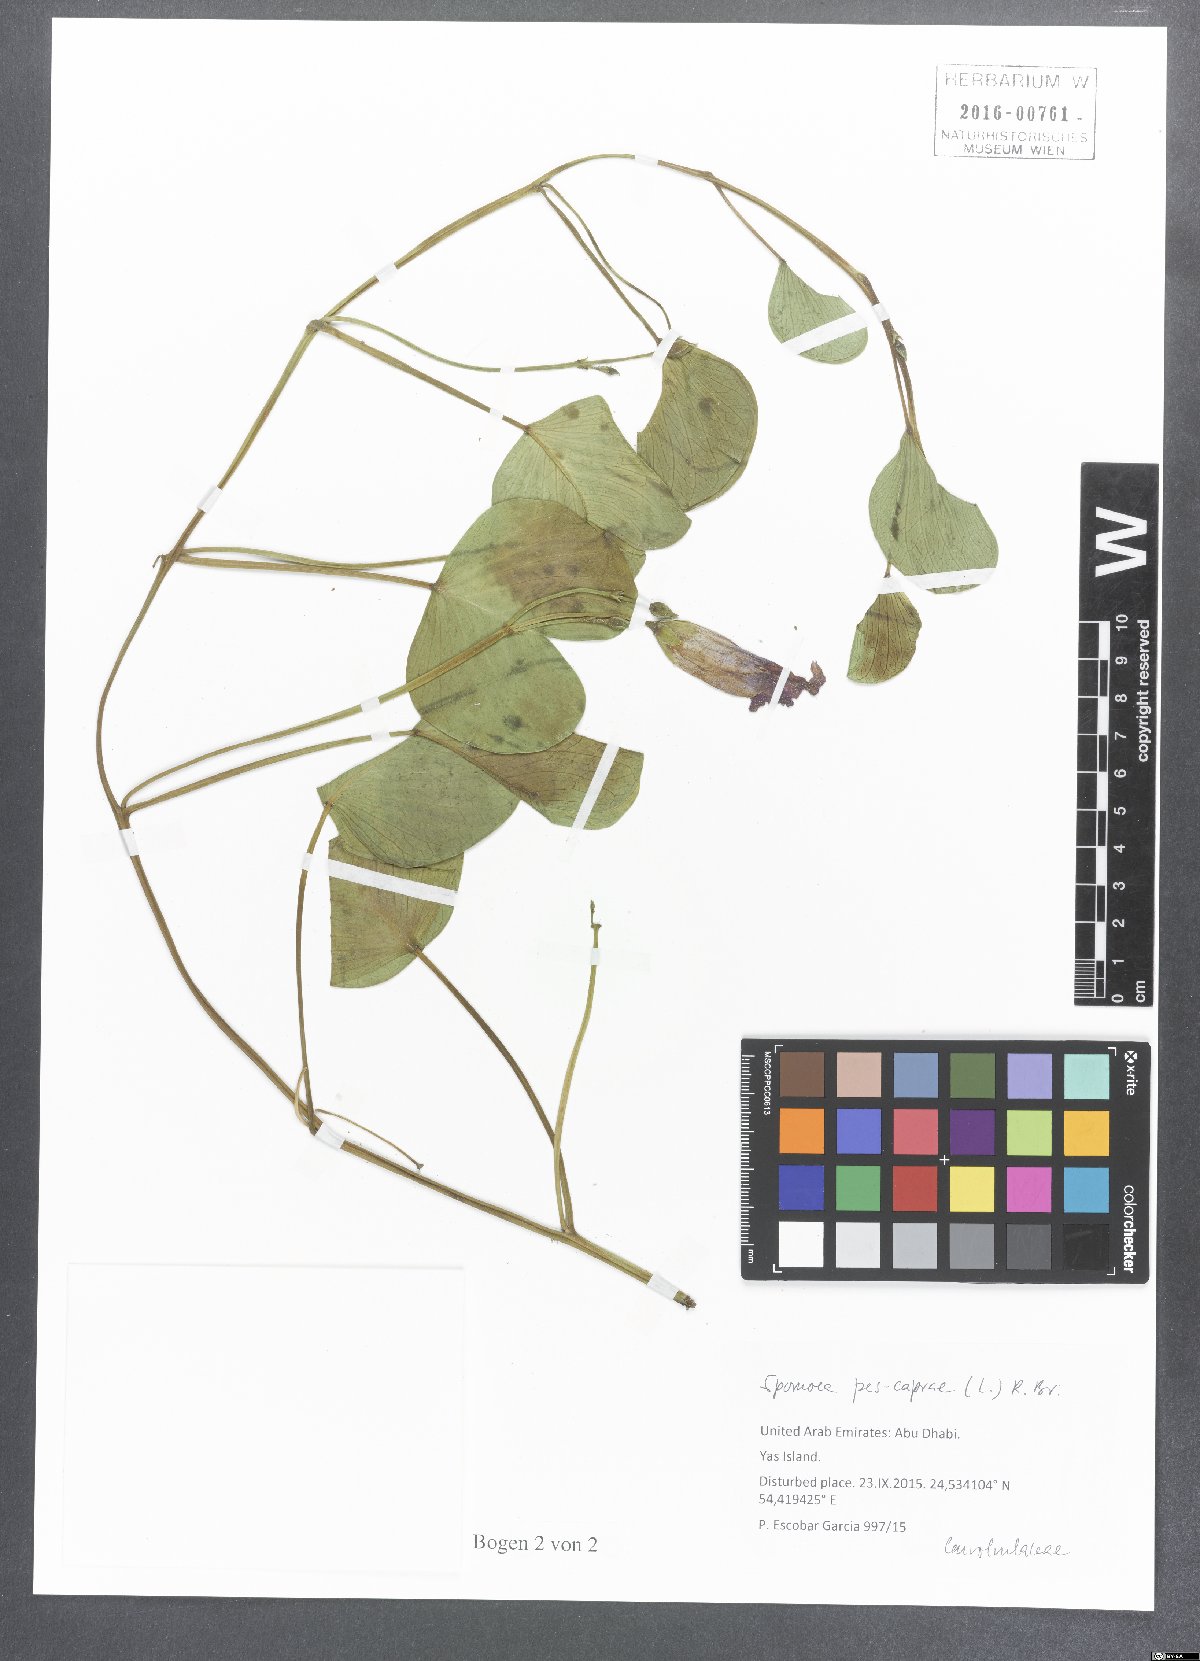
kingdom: Plantae
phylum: Tracheophyta
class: Magnoliopsida
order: Solanales
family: Convolvulaceae
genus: Ipomoea
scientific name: Ipomoea pes-caprae
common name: Beach morning glory
